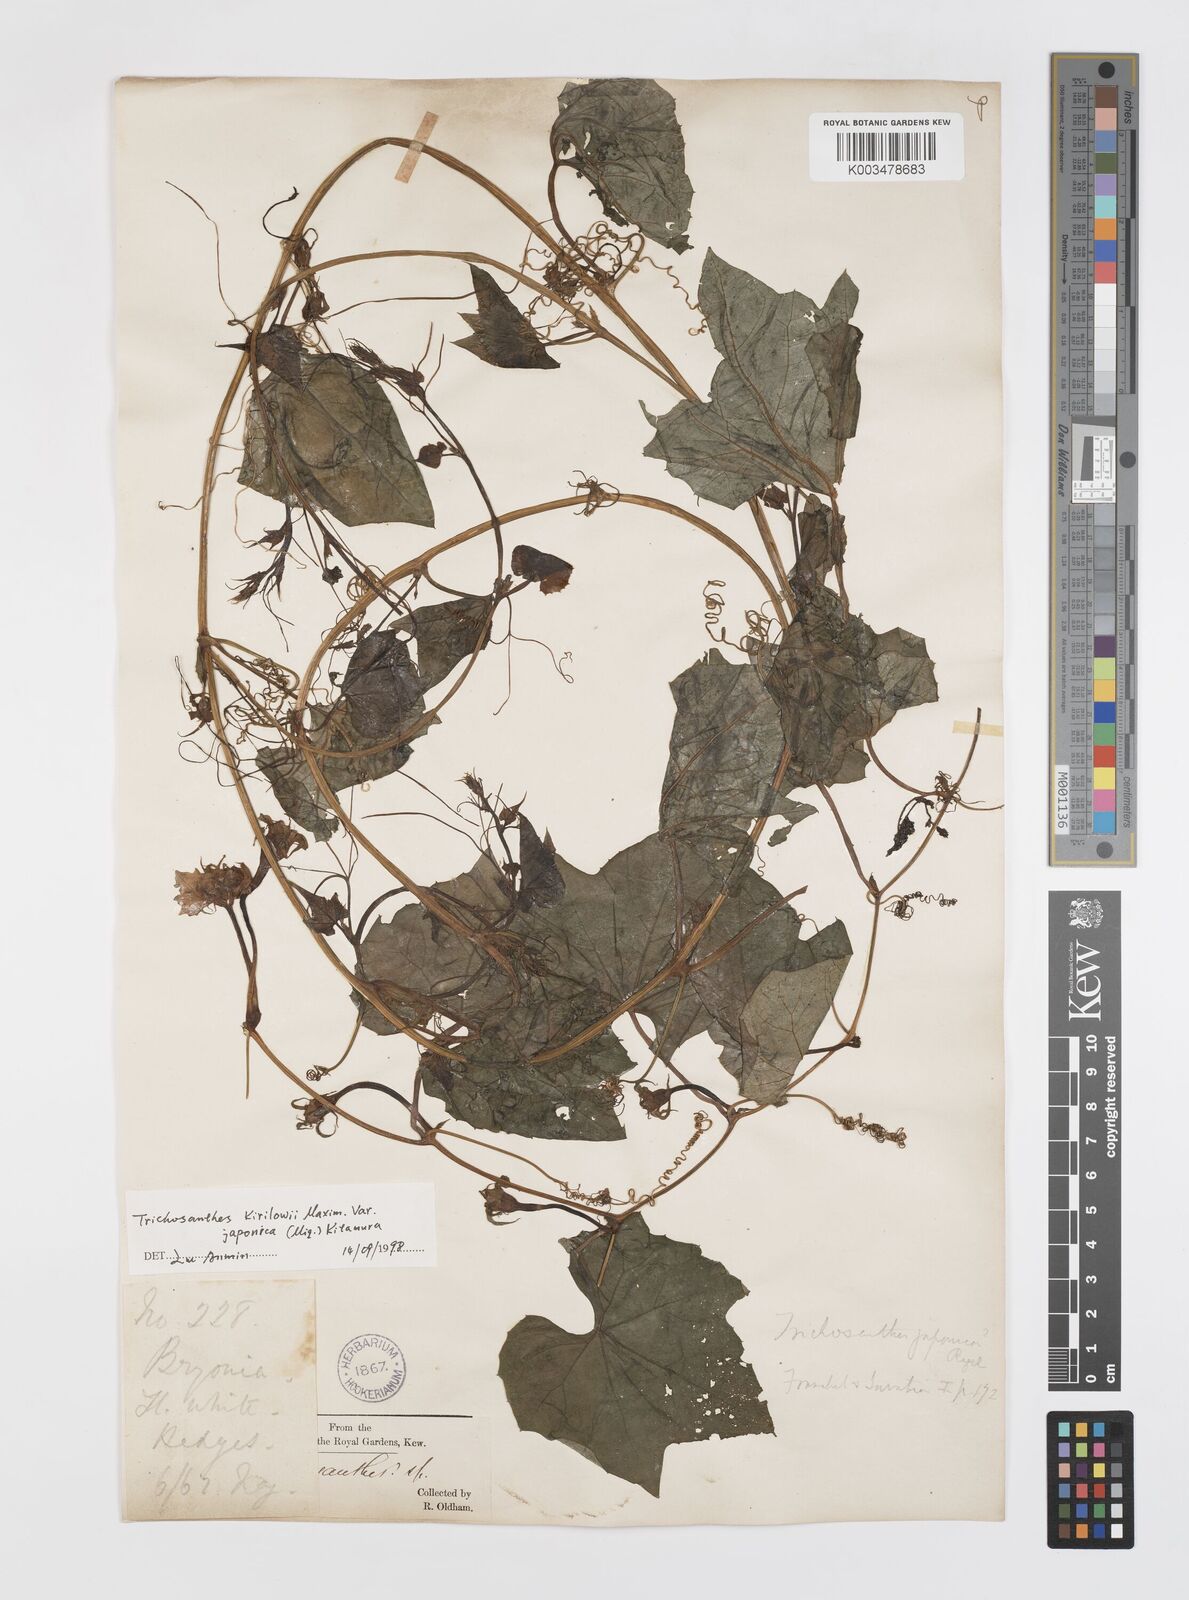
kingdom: Plantae
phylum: Tracheophyta
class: Magnoliopsida
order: Cucurbitales
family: Cucurbitaceae
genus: Trichosanthes
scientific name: Trichosanthes kirilowii
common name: Chinese-cucumber
